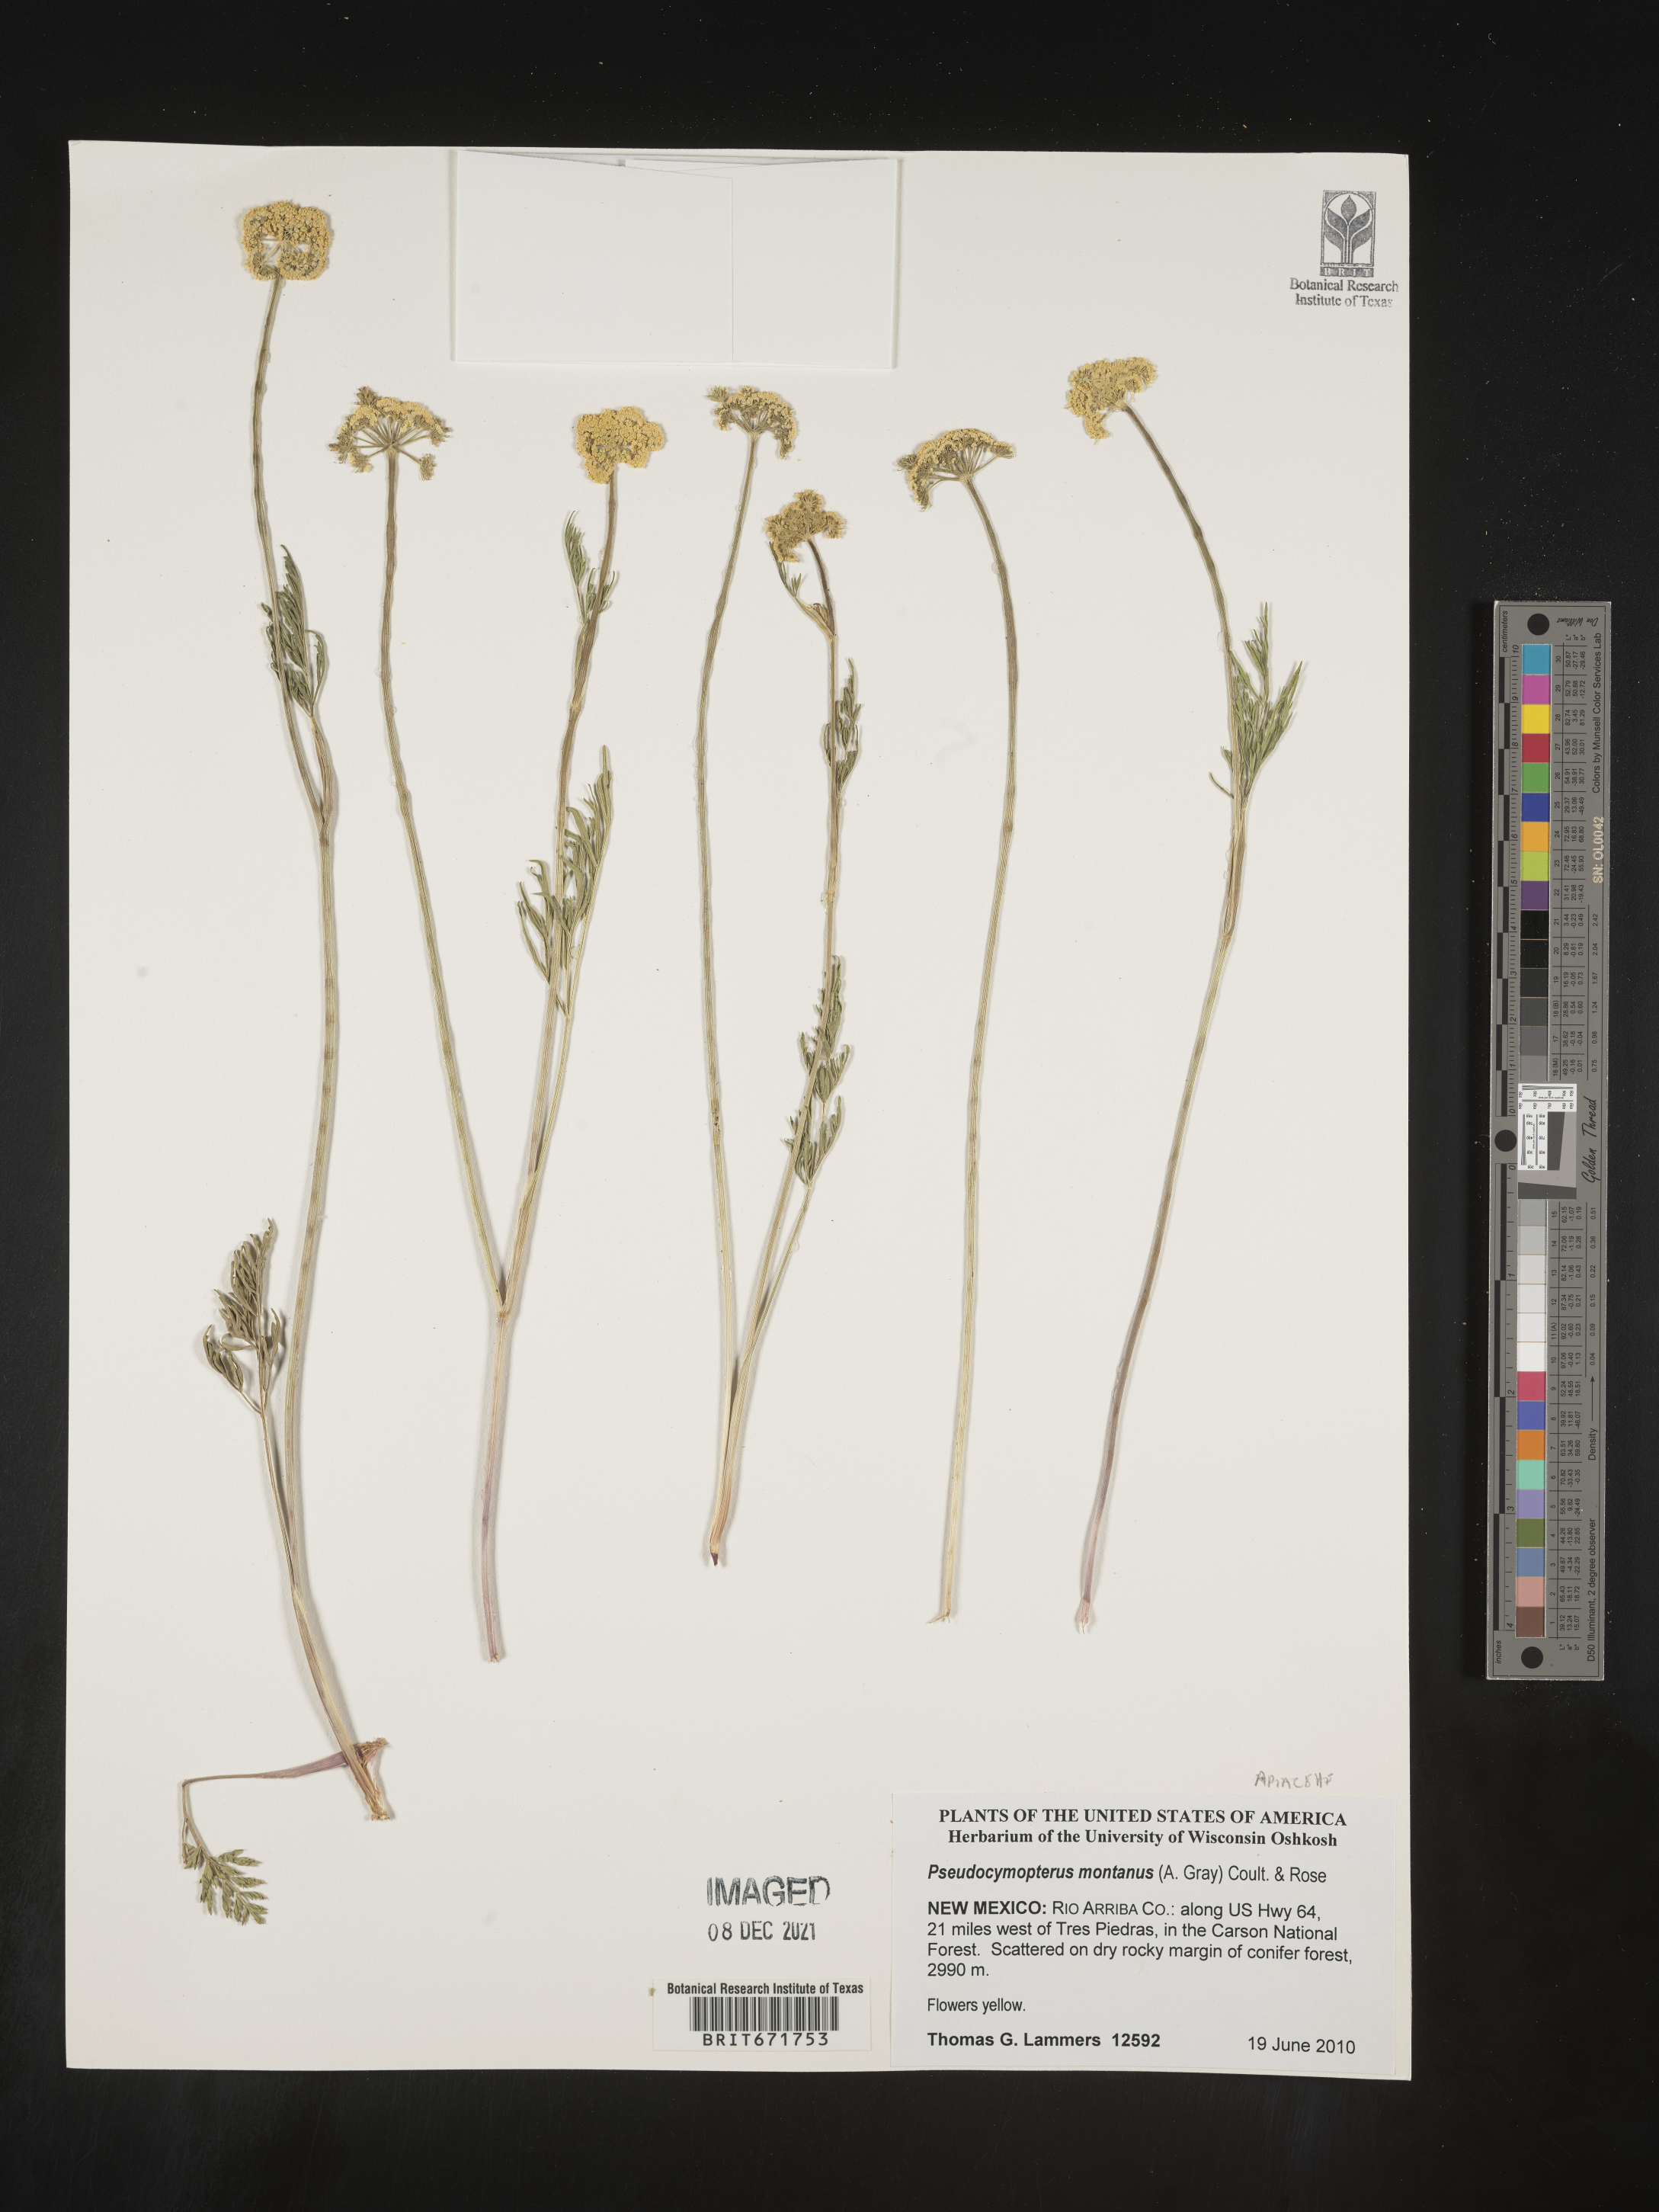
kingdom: Plantae
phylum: Tracheophyta
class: Magnoliopsida
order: Apiales
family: Apiaceae
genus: Cymopterus
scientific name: Cymopterus lemmonii
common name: Lemmon's spring-parsley
